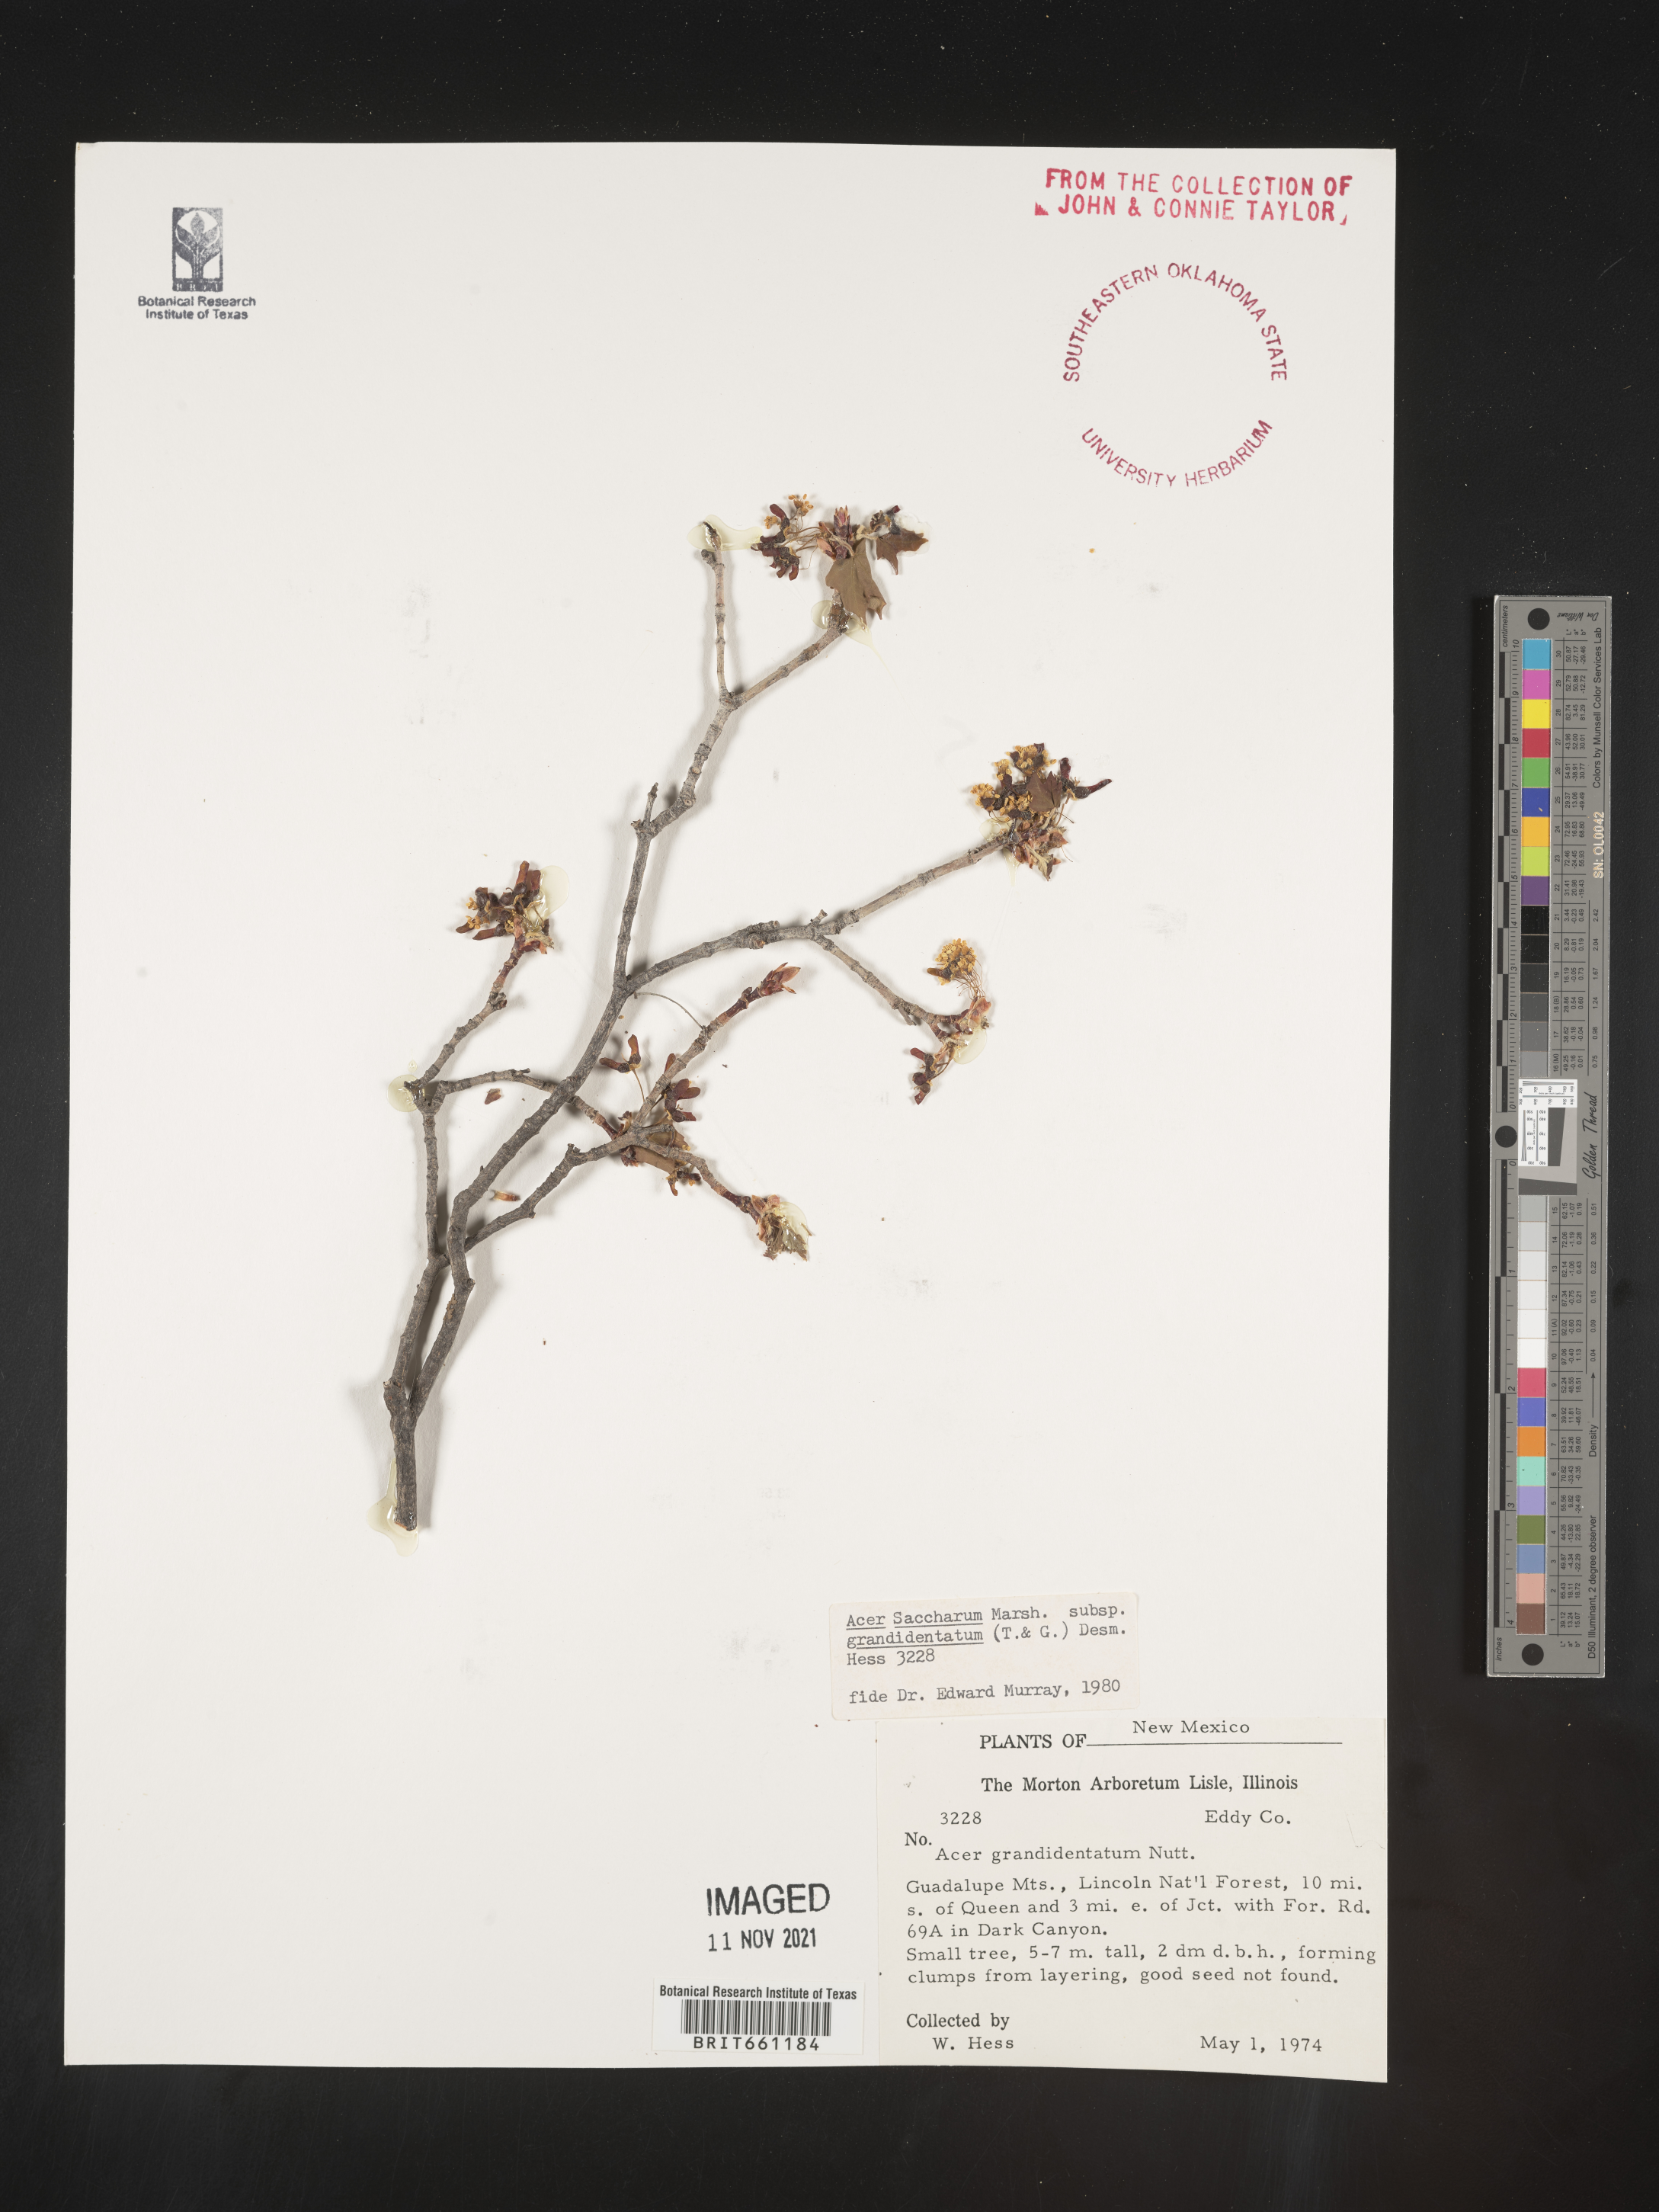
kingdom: Plantae
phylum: Tracheophyta
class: Magnoliopsida
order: Sapindales
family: Sapindaceae
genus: Acer
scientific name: Acer grandidentatum
